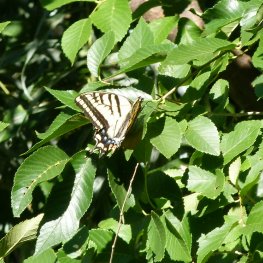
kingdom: Animalia
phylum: Arthropoda
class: Insecta
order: Lepidoptera
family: Papilionidae
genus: Papilio
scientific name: Papilio multicaudata
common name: Two-tailed Swallowtail
